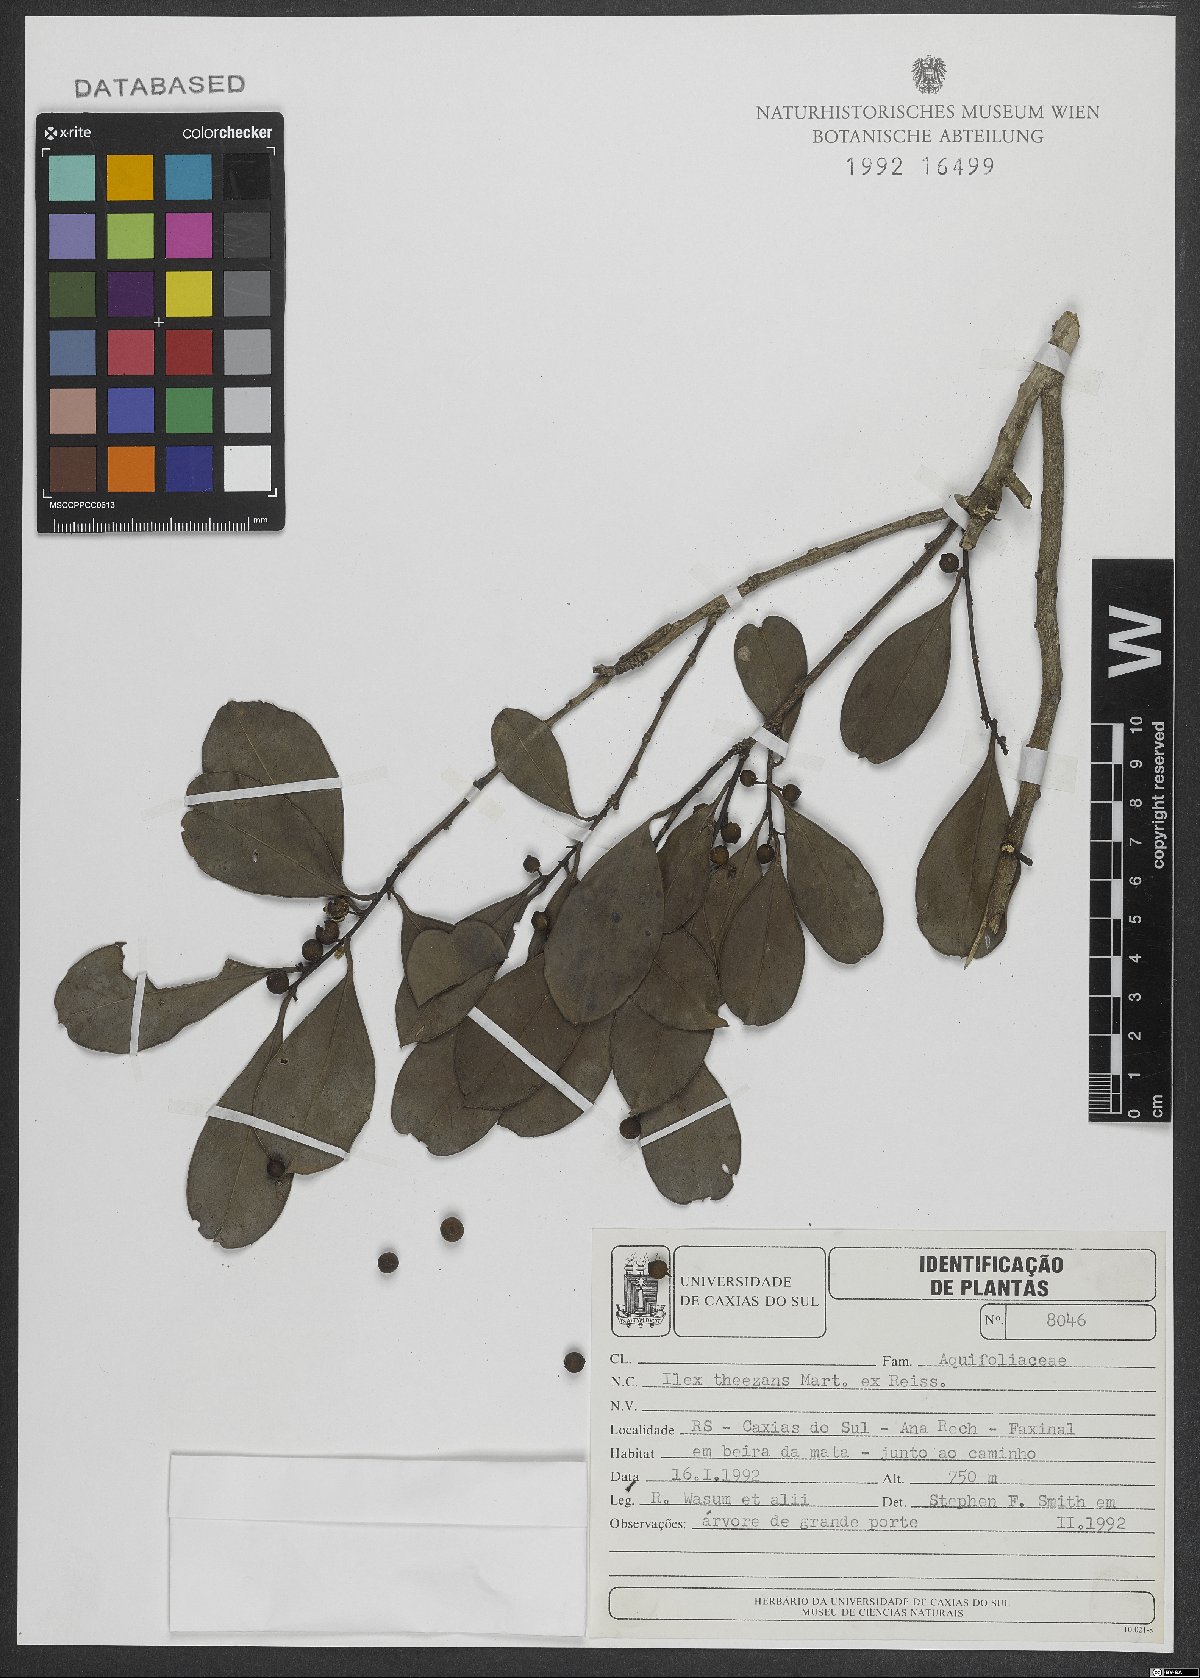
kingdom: Plantae
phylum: Tracheophyta
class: Magnoliopsida
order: Aquifoliales
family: Aquifoliaceae
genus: Ilex
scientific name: Ilex theezans
